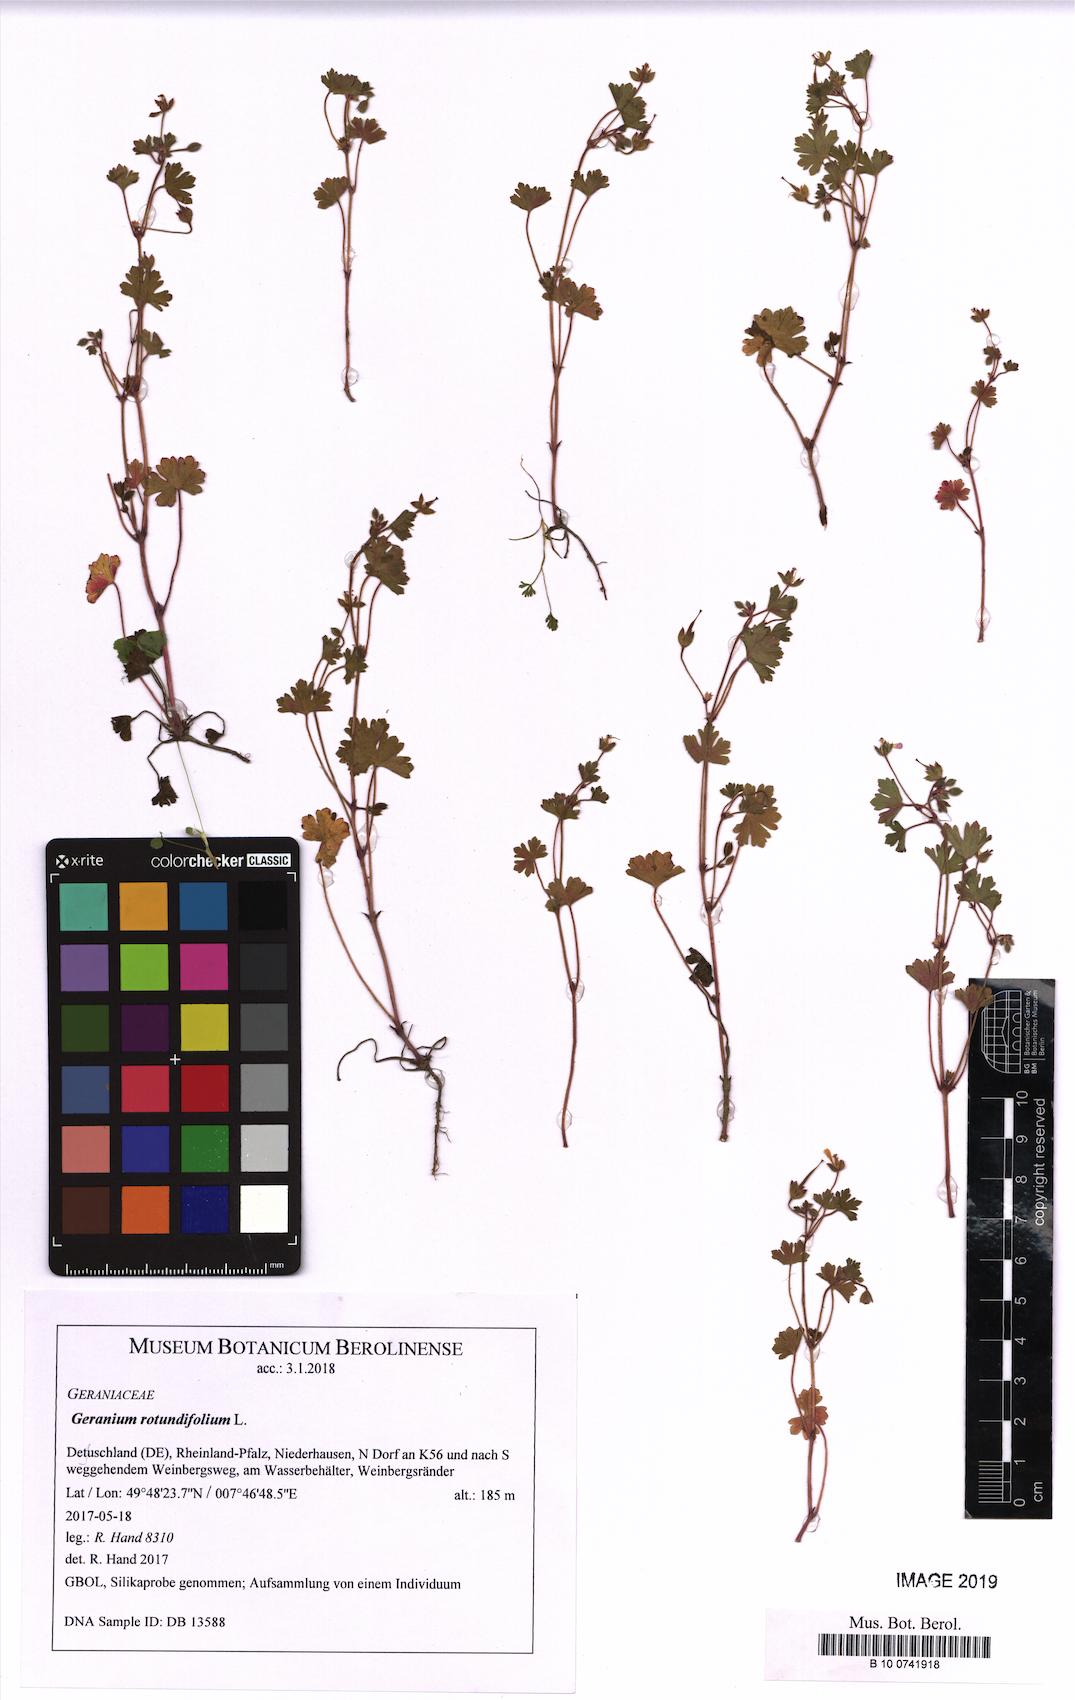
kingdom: Plantae
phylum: Tracheophyta
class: Magnoliopsida
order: Geraniales
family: Geraniaceae
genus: Geranium
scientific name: Geranium rotundifolium
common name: Round-leaved crane's-bill
